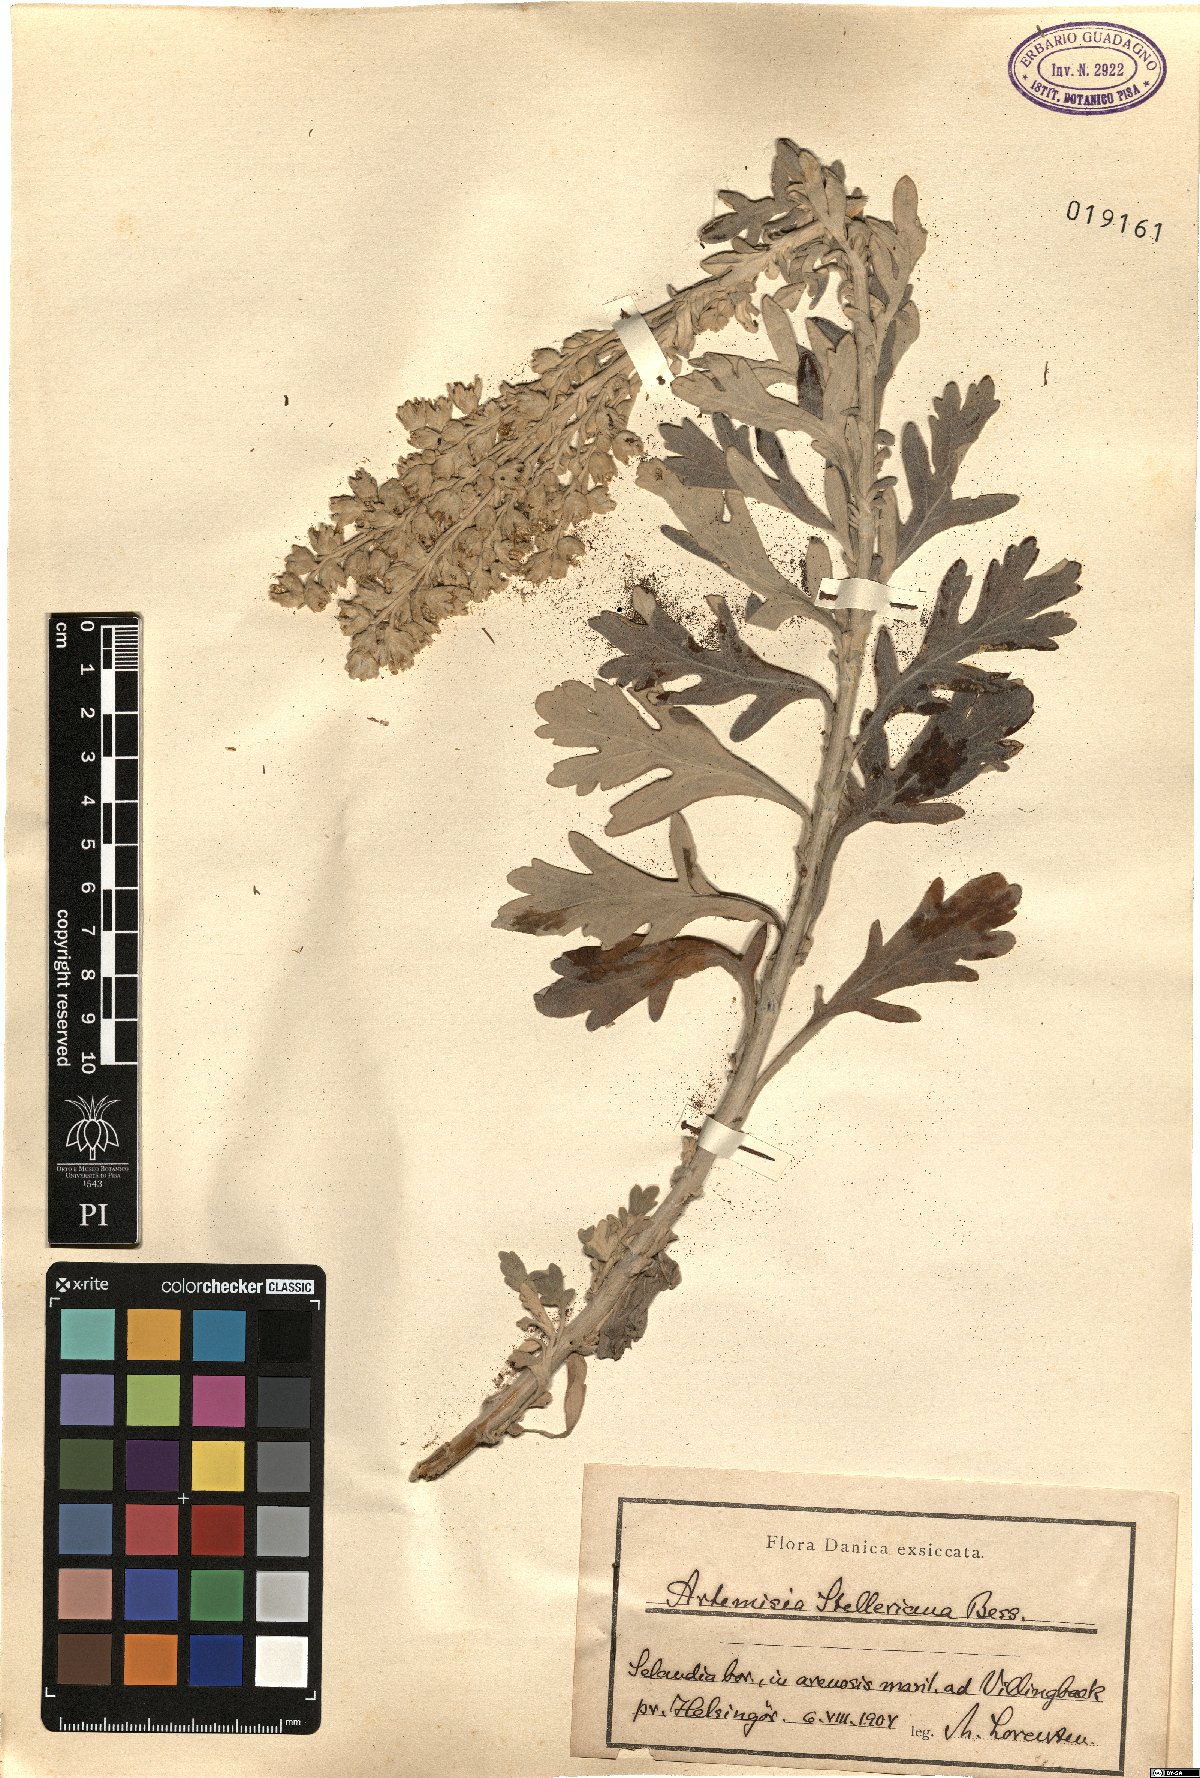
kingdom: Plantae
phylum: Tracheophyta
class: Magnoliopsida
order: Asterales
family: Asteraceae
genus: Artemisia
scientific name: Artemisia stelleriana
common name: Beach wormwood
